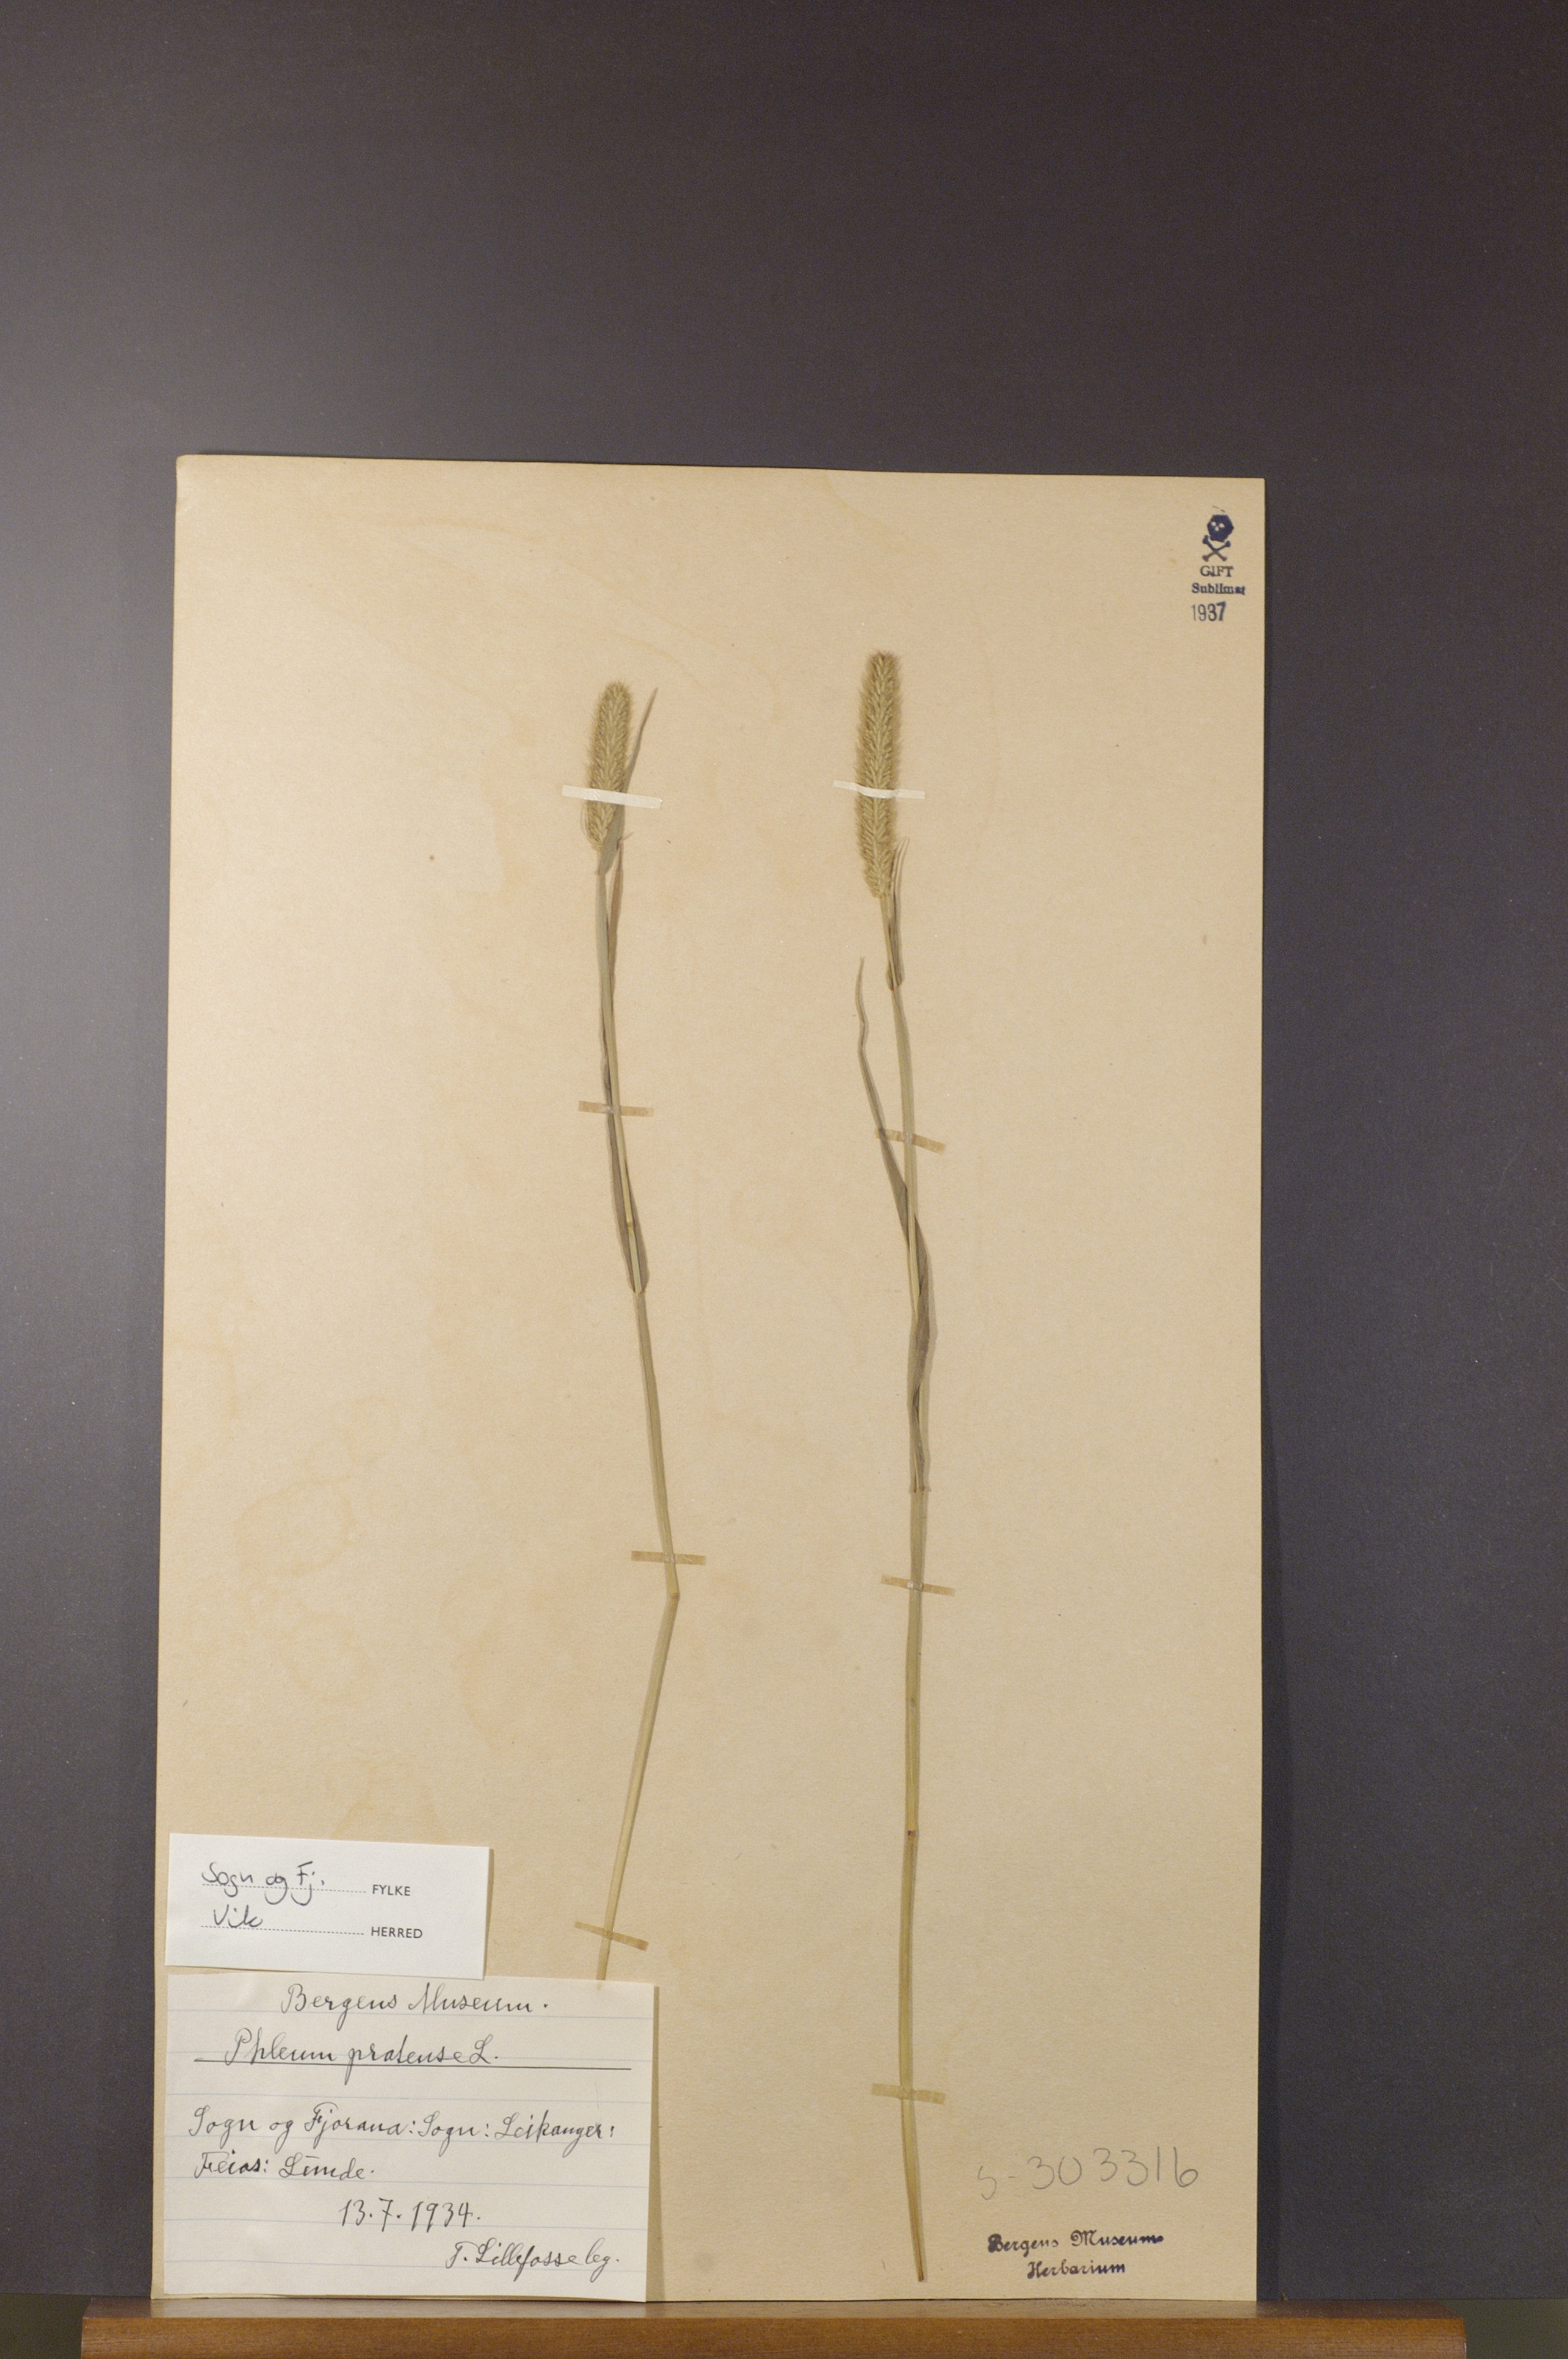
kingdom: Plantae
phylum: Tracheophyta
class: Liliopsida
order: Poales
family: Poaceae
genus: Phleum
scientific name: Phleum pratense
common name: Timothy grass
